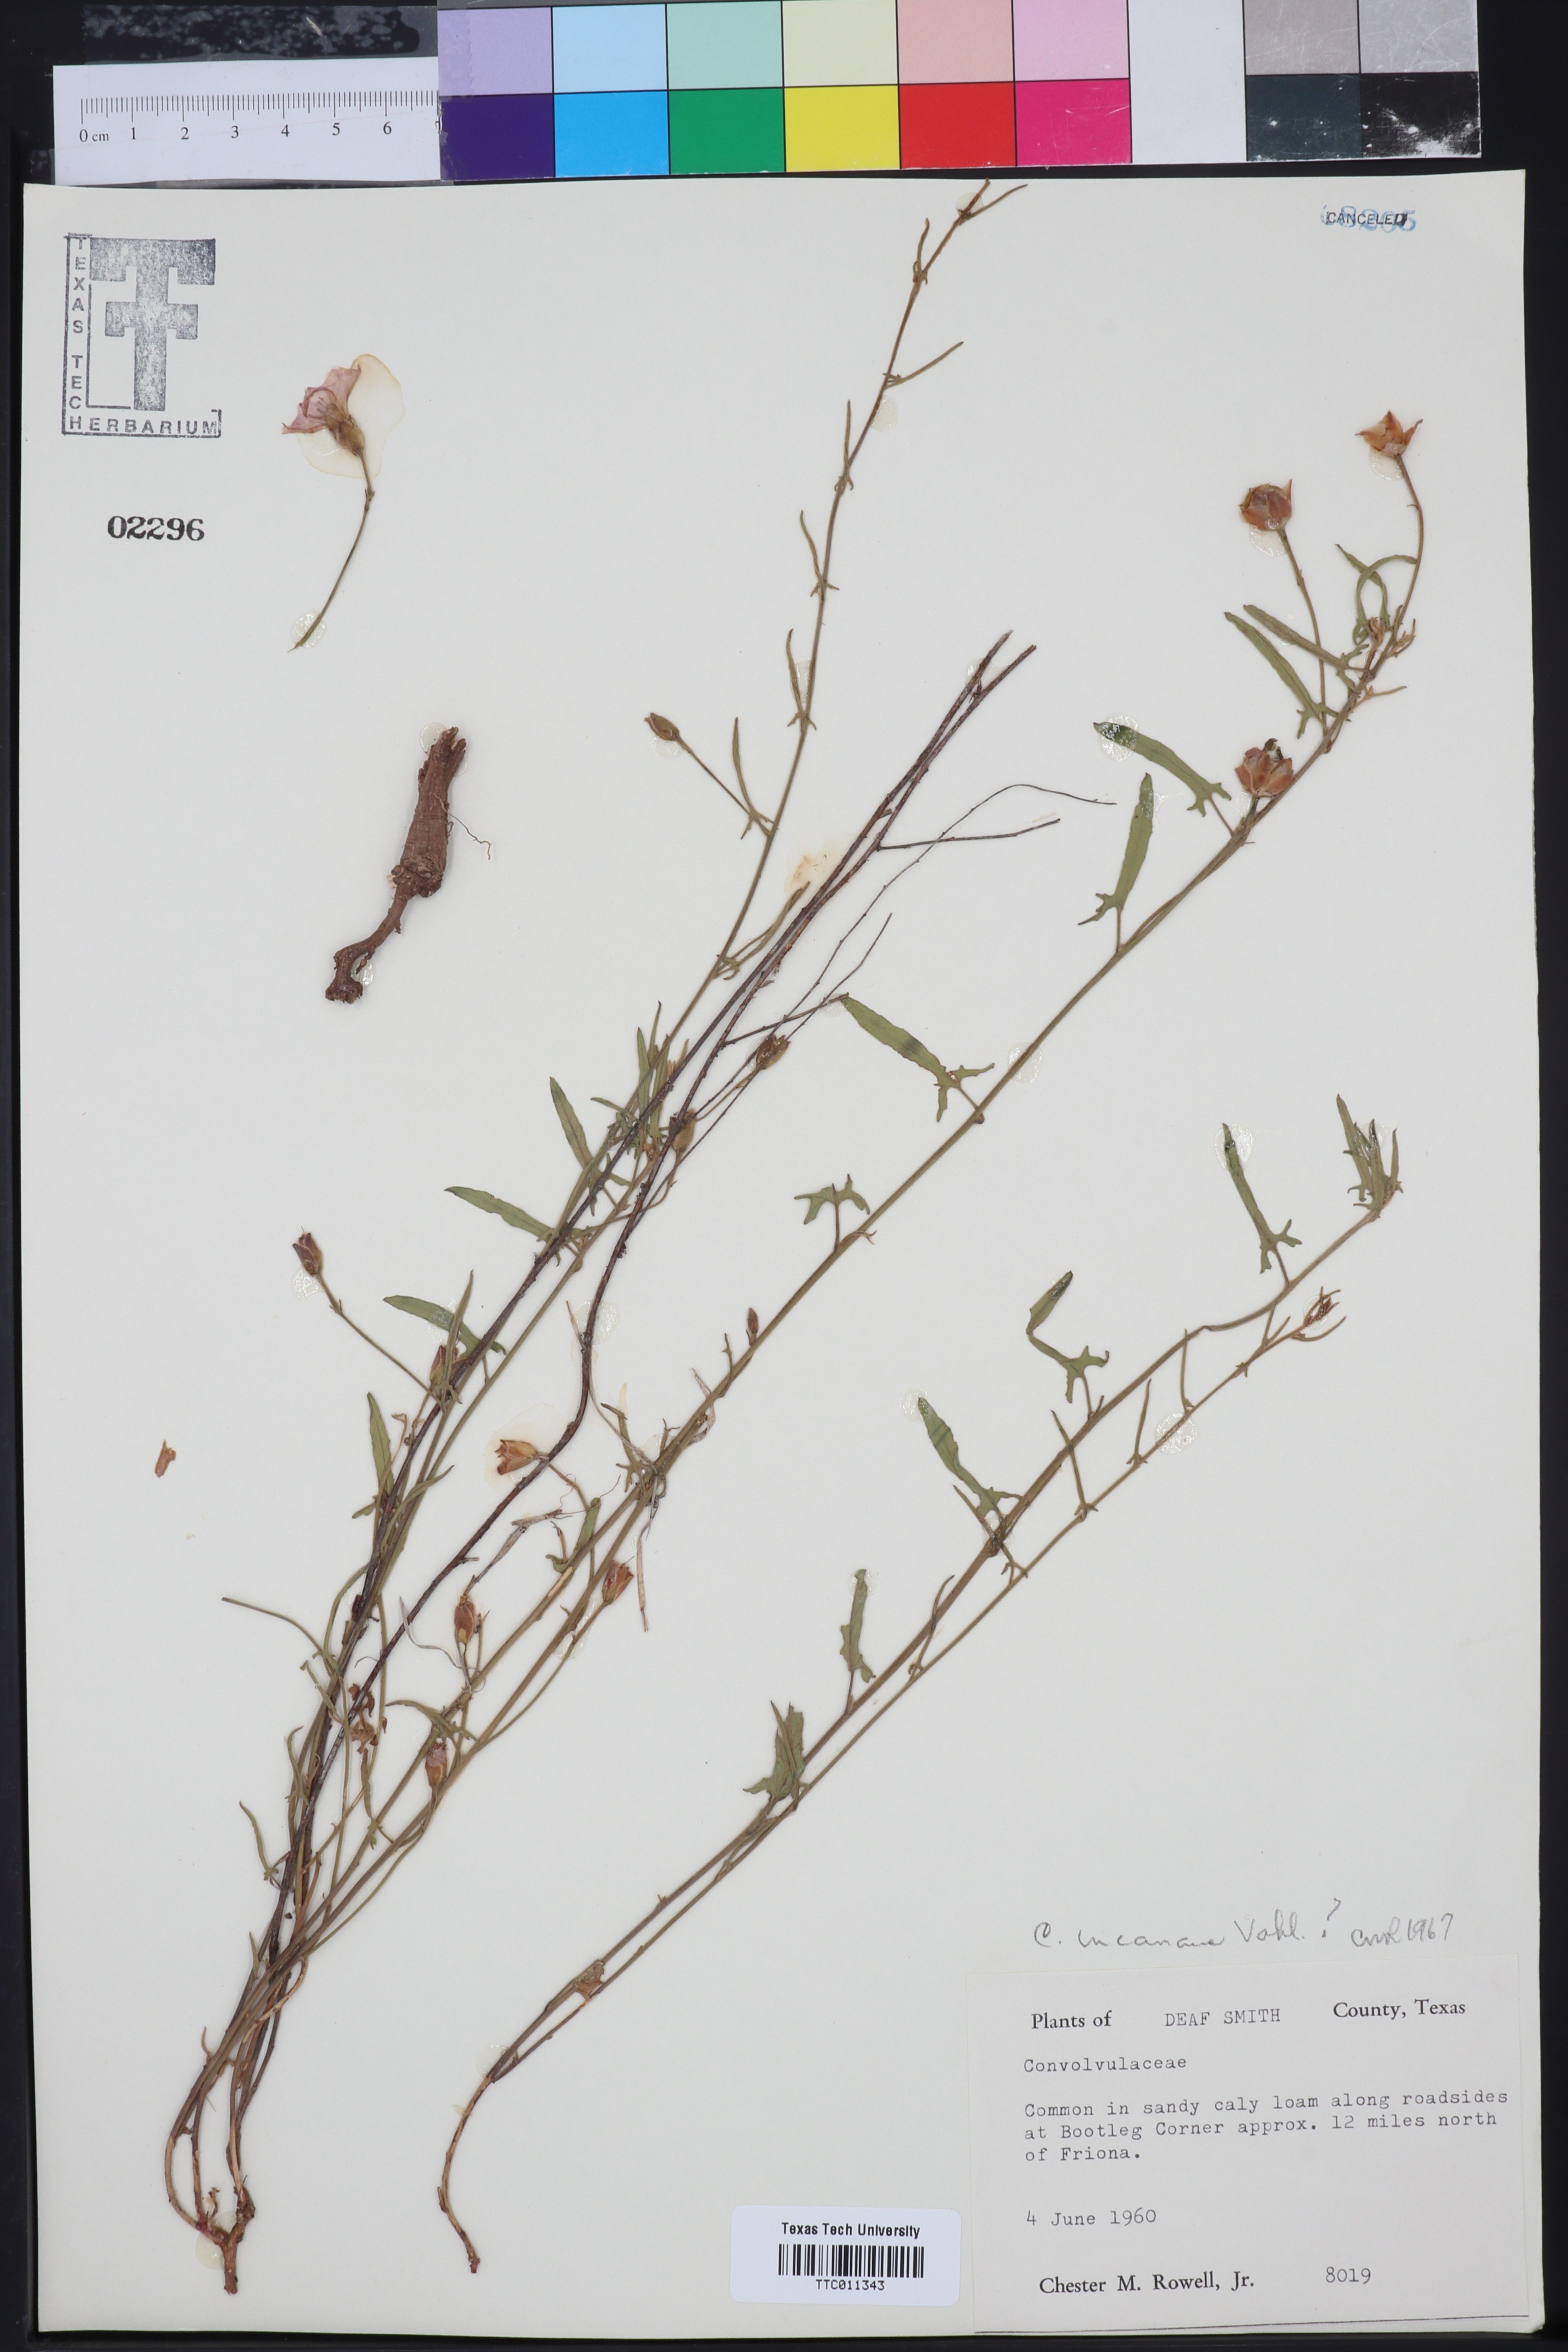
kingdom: Plantae
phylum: Tracheophyta
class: Magnoliopsida
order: Solanales
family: Convolvulaceae
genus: Convolvulus
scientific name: Convolvulus hermanniae
